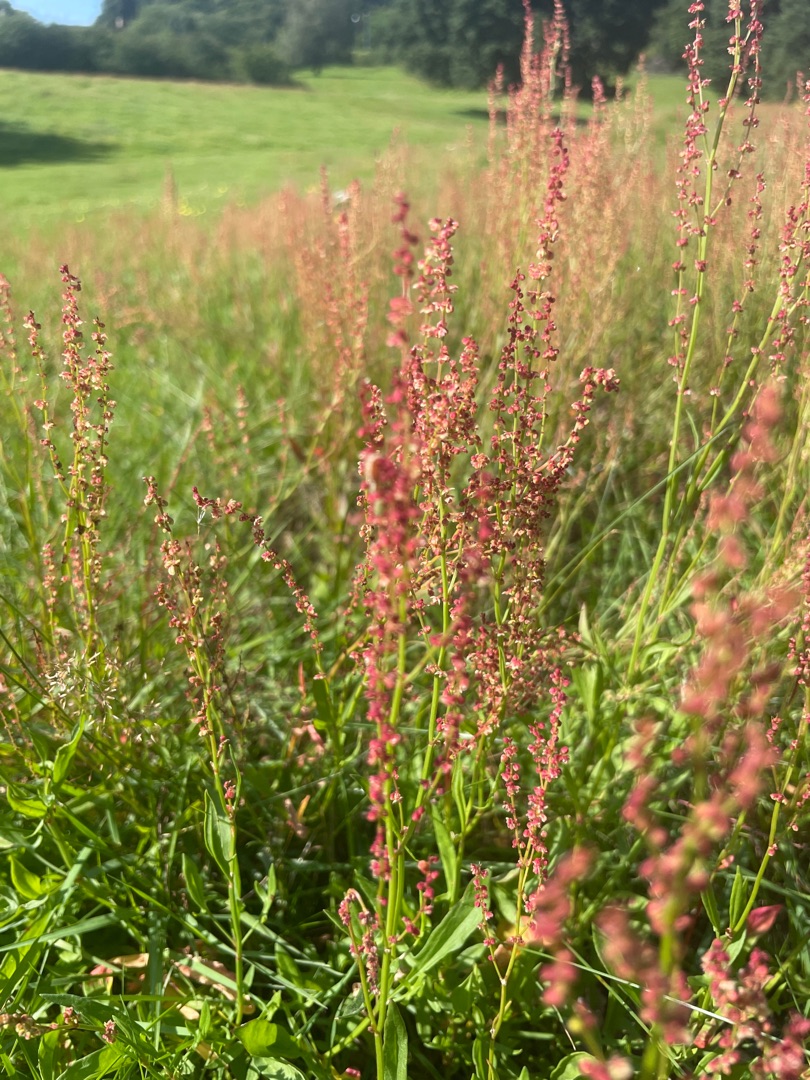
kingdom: Plantae
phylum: Tracheophyta
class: Magnoliopsida
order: Caryophyllales
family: Polygonaceae
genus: Rumex
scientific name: Rumex acetosella
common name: Rødknæ
